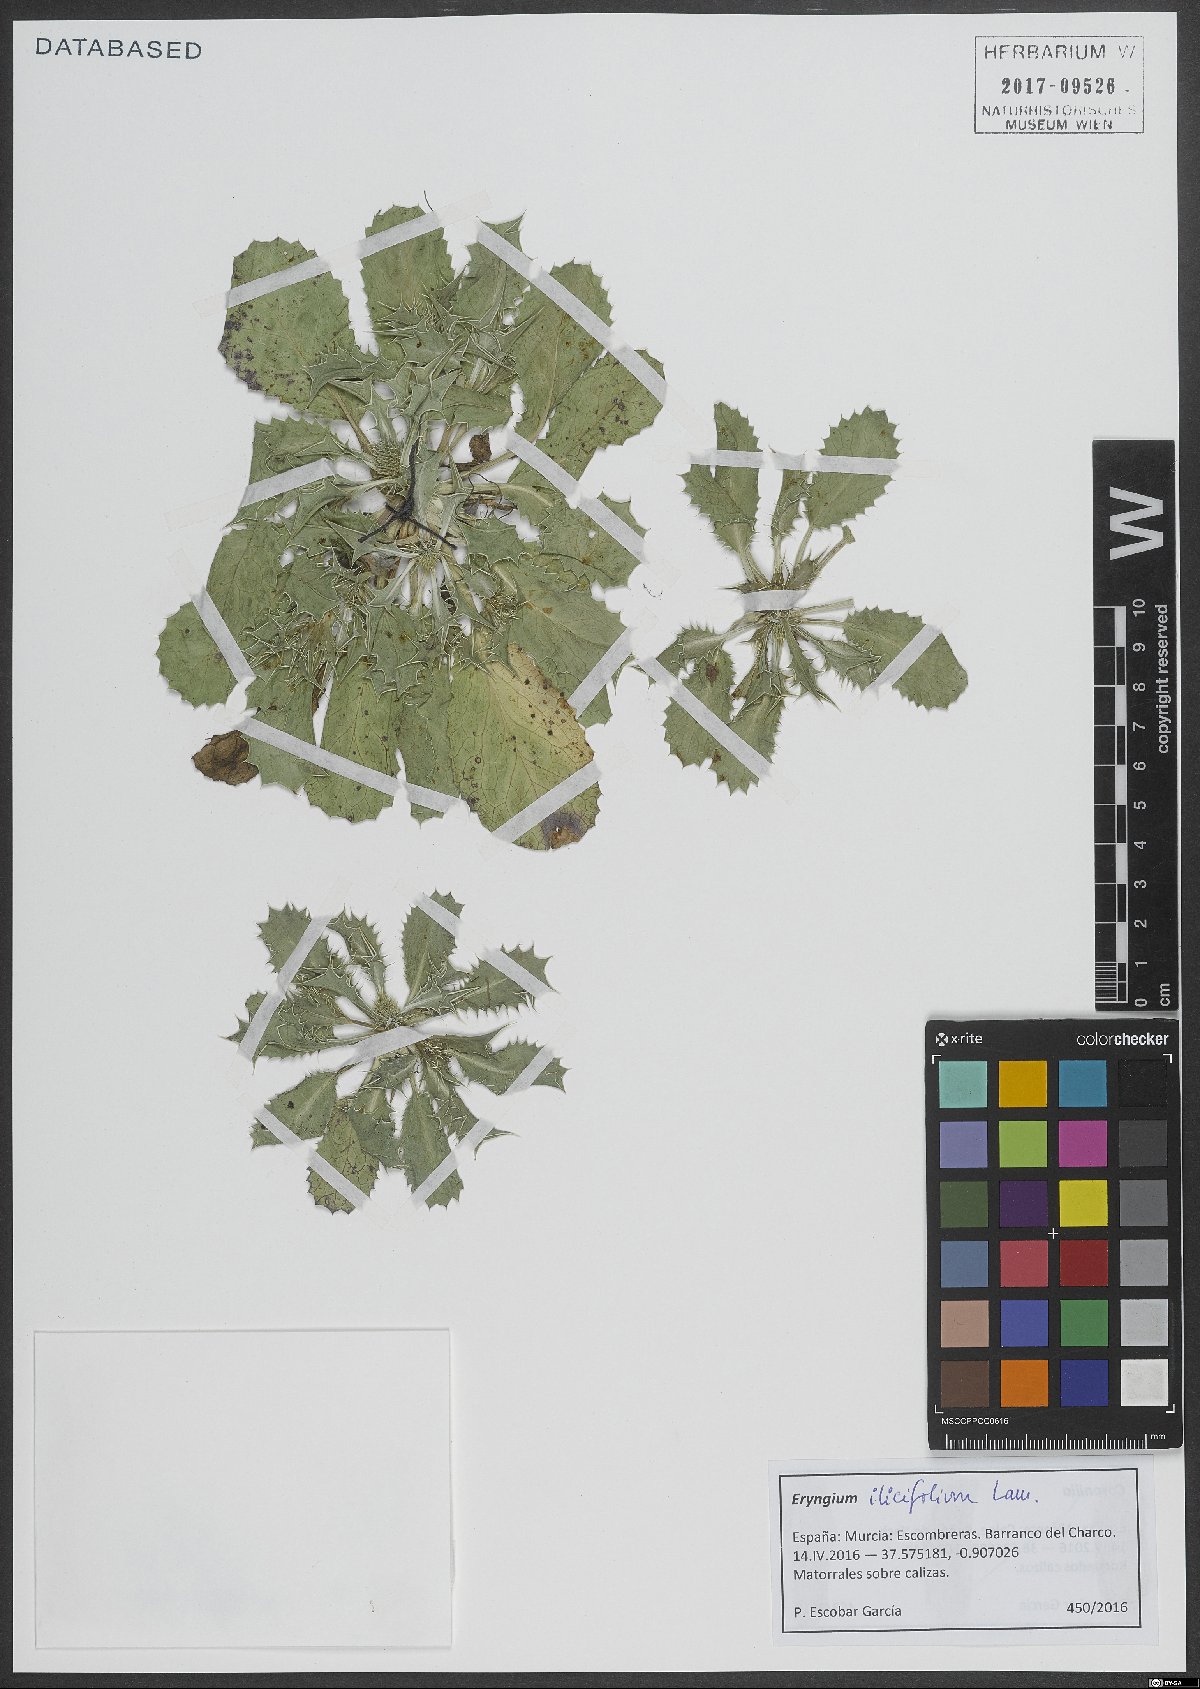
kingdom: Plantae
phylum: Tracheophyta
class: Magnoliopsida
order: Apiales
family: Apiaceae
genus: Eryngium
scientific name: Eryngium ilicifolium
